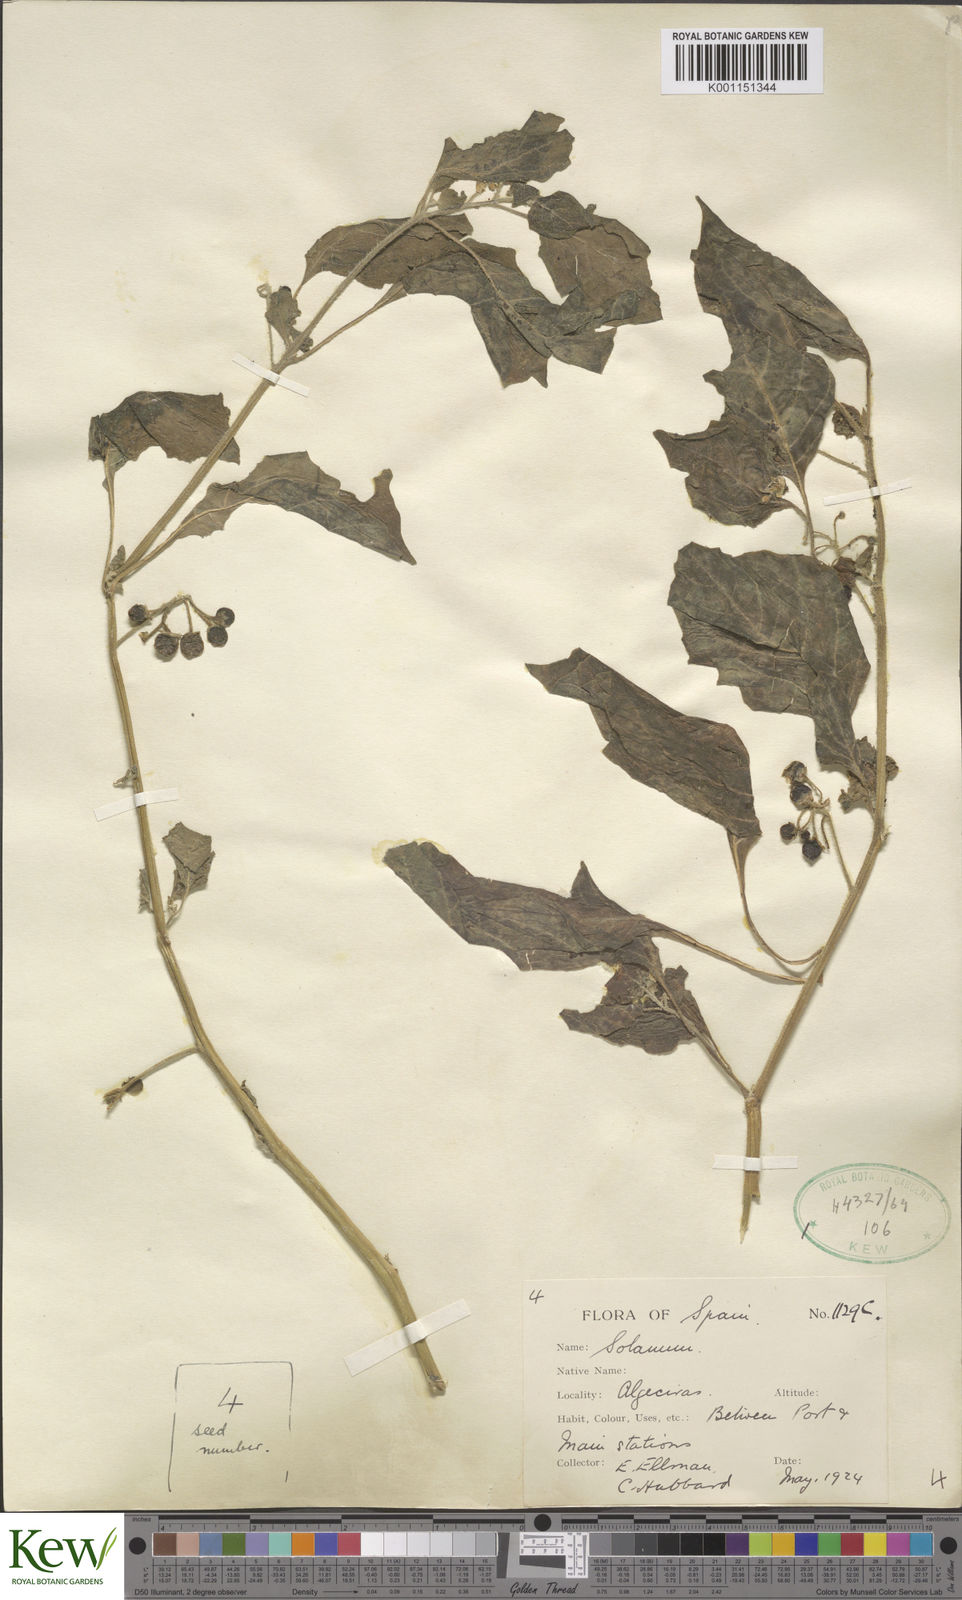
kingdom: Plantae
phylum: Tracheophyta
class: Magnoliopsida
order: Solanales
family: Solanaceae
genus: Solanum
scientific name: Solanum alatum
